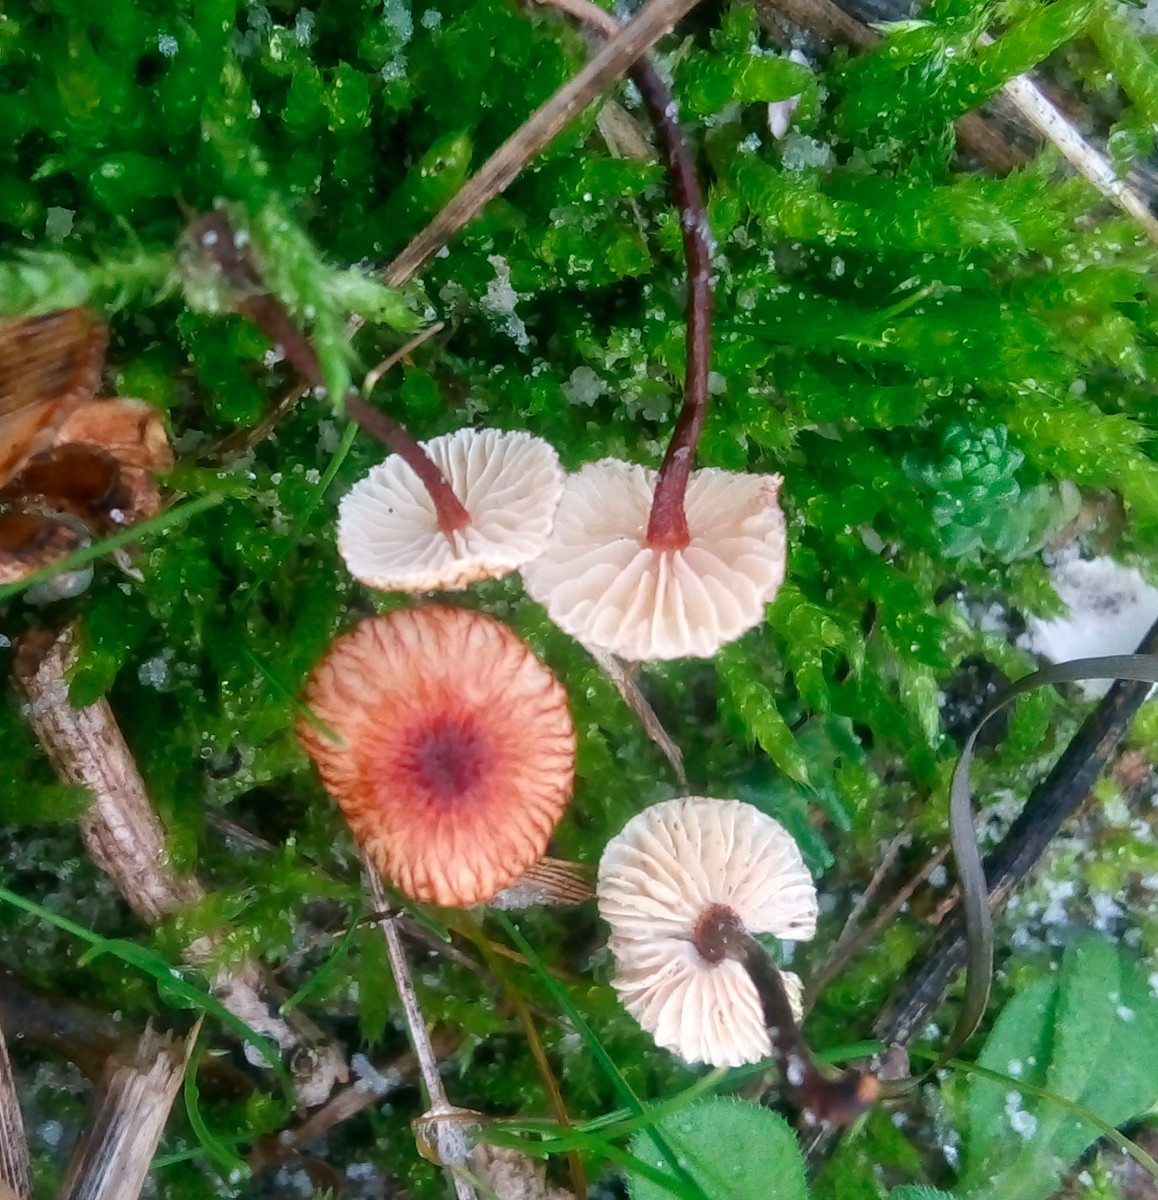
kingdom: Fungi
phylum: Basidiomycota
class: Agaricomycetes
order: Agaricales
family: Marasmiaceae
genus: Crinipellis
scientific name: Crinipellis scabella
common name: børstefod
